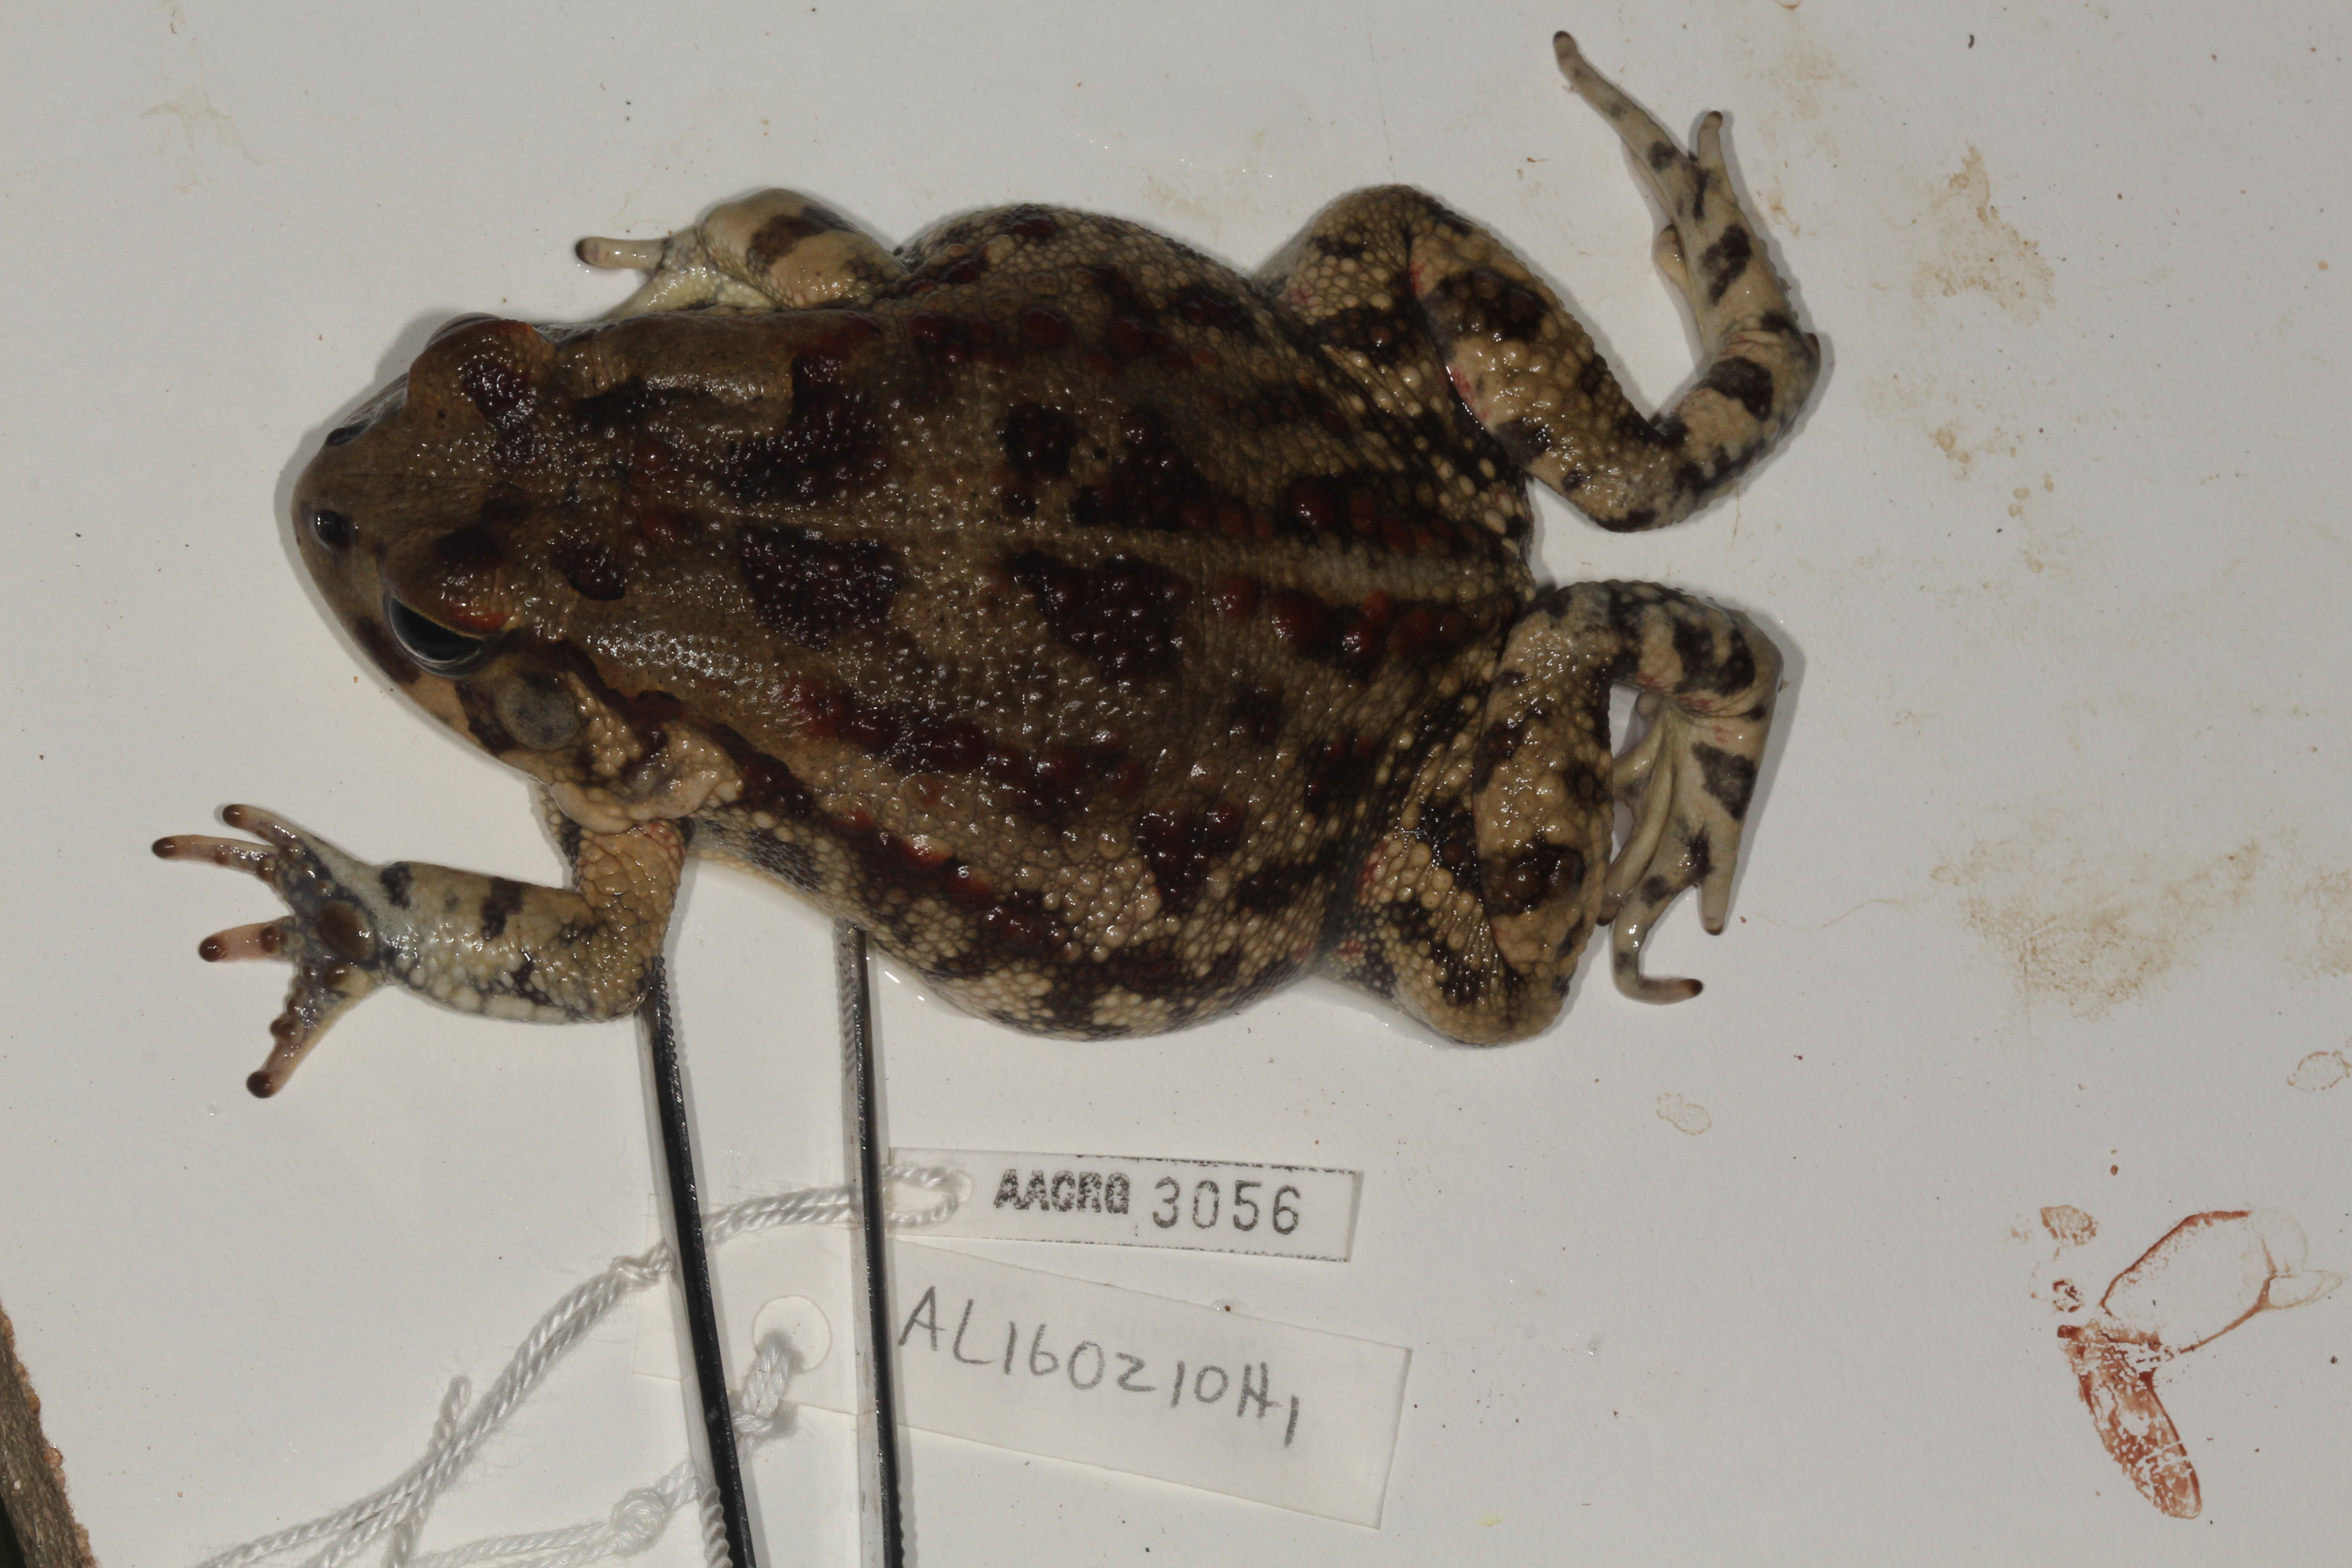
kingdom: Animalia
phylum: Chordata
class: Amphibia
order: Anura
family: Bufonidae
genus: Sclerophrys
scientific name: Sclerophrys garmani
